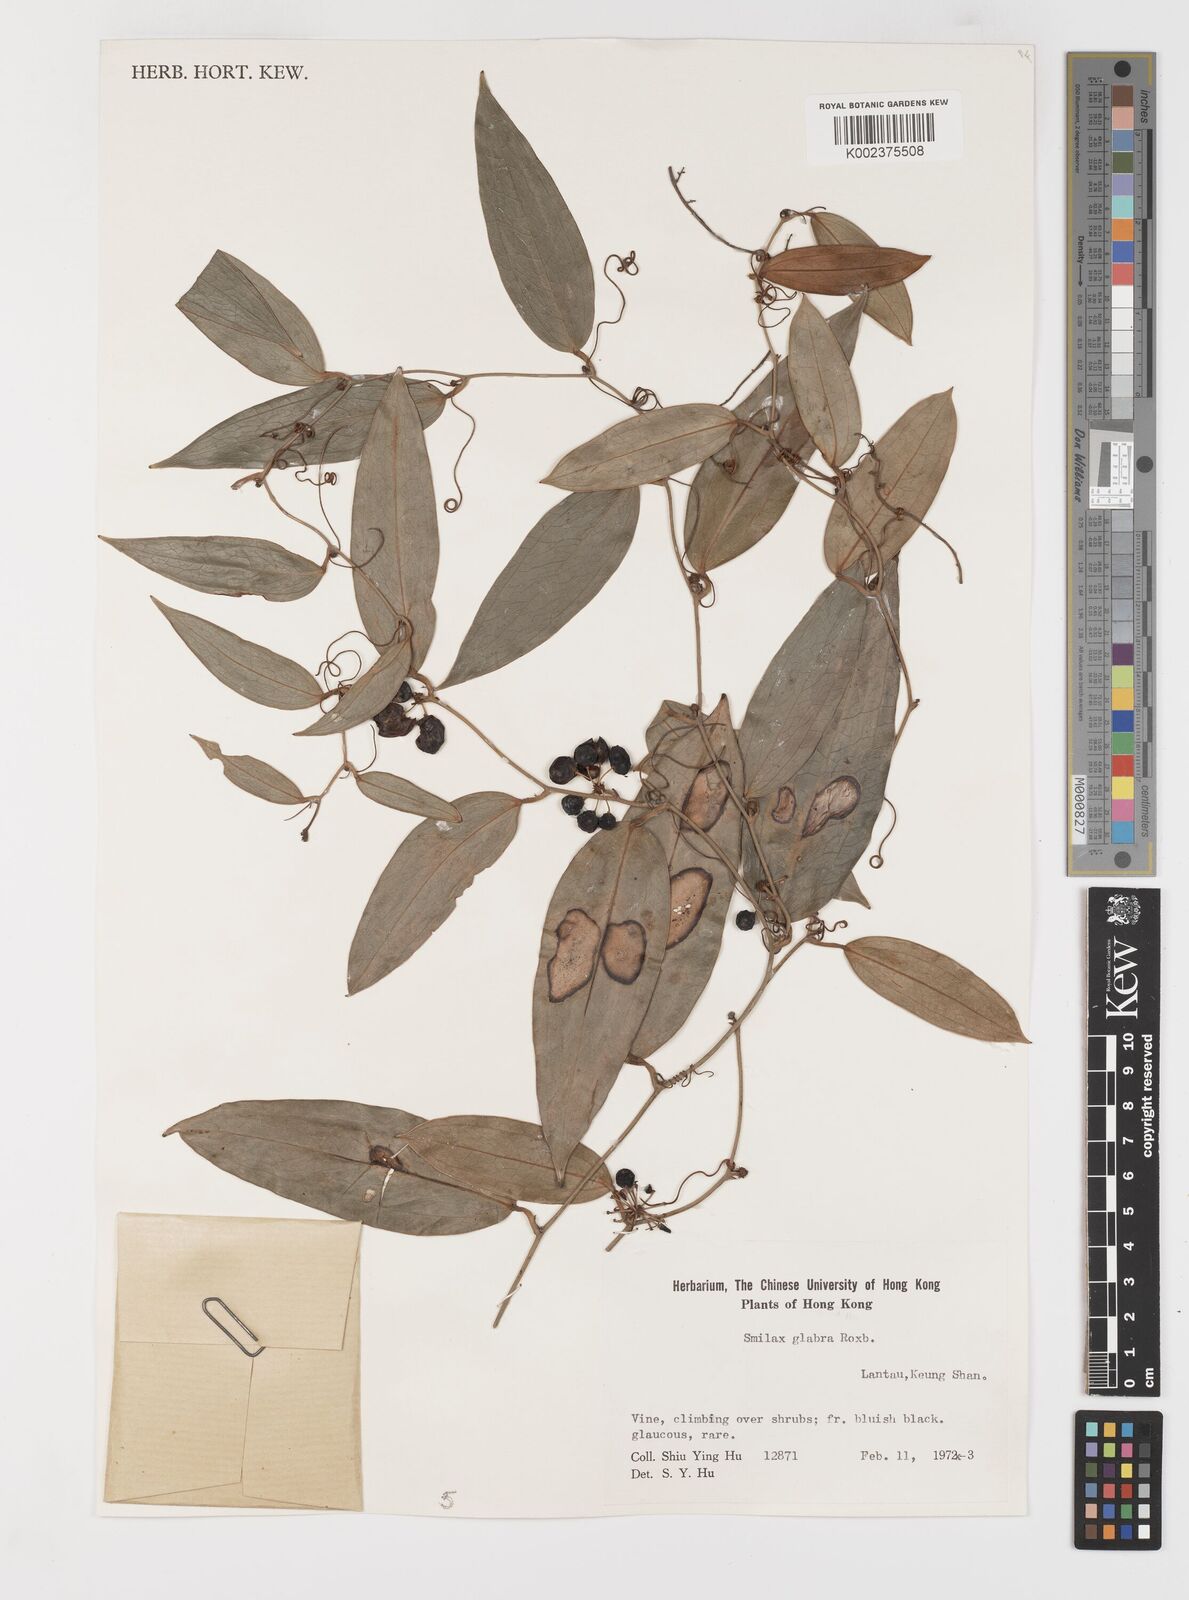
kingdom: Plantae
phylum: Tracheophyta
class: Liliopsida
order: Liliales
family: Smilacaceae
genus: Smilax
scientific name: Smilax glabra
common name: Chinese smilax
